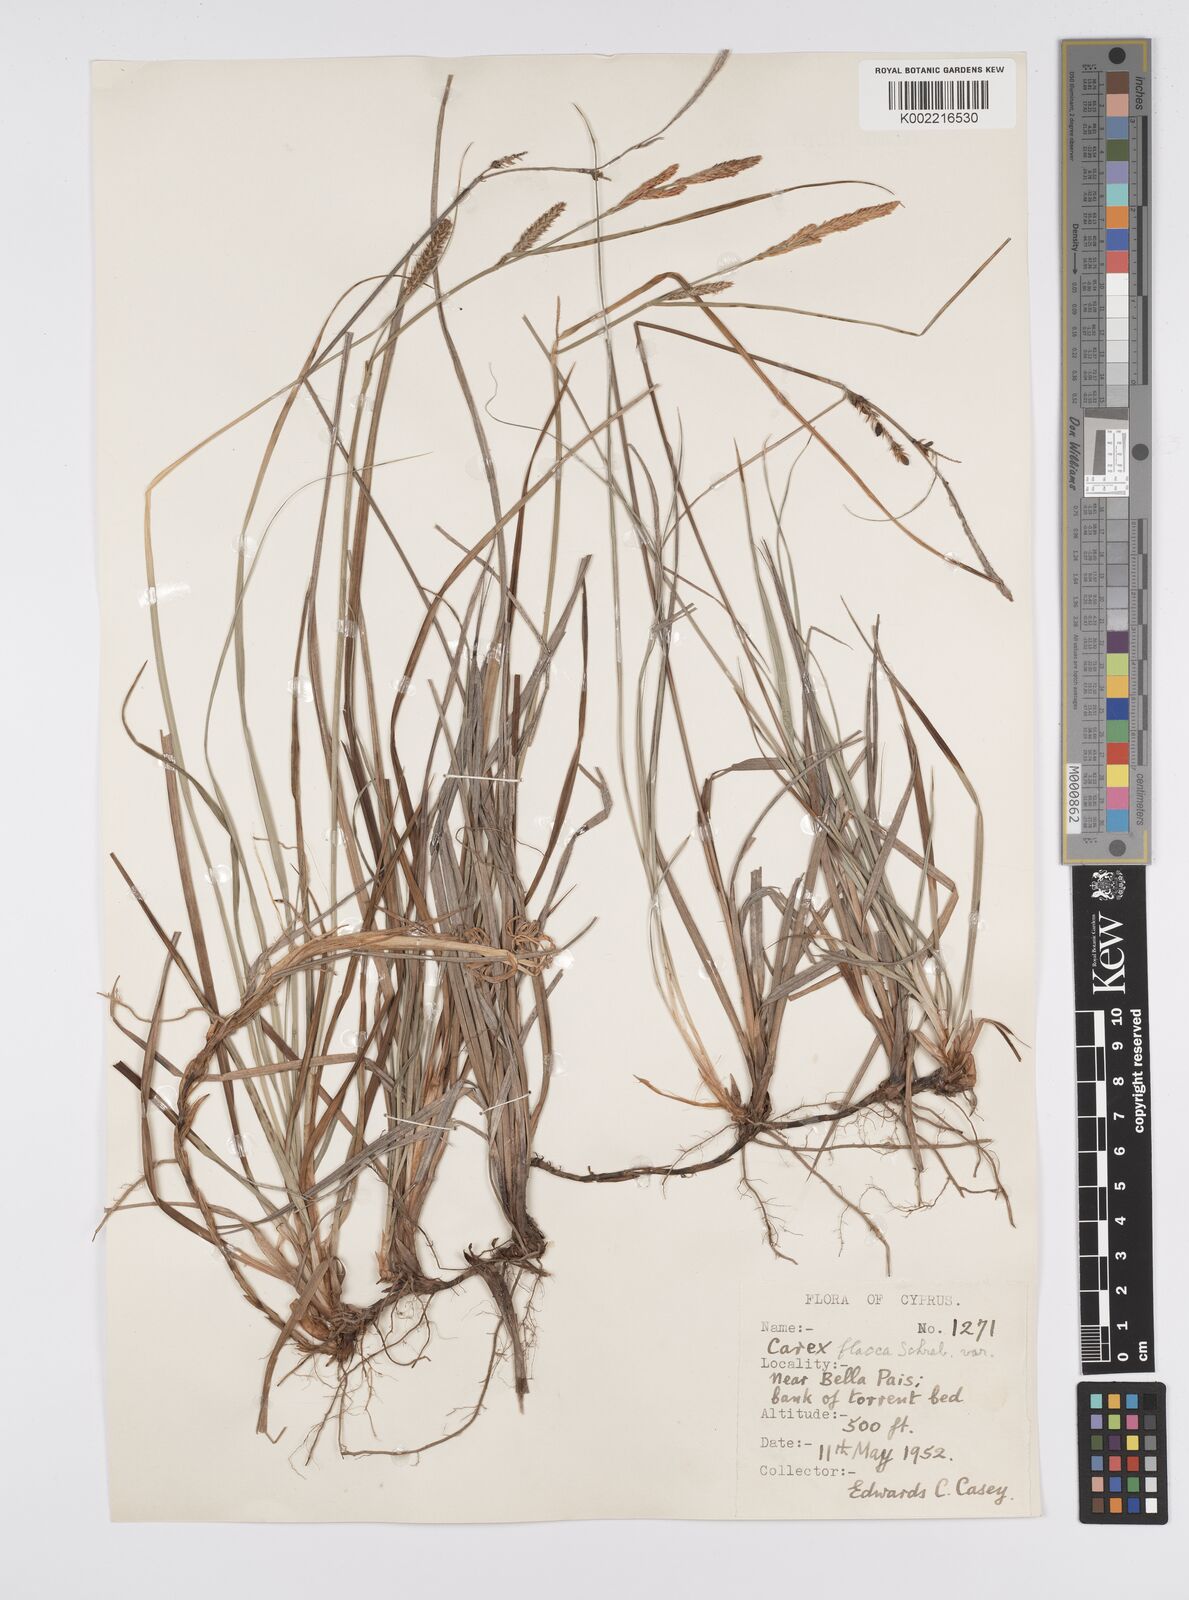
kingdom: Plantae
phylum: Tracheophyta
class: Liliopsida
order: Poales
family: Cyperaceae
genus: Carex
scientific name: Carex flacca
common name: Glaucous sedge
